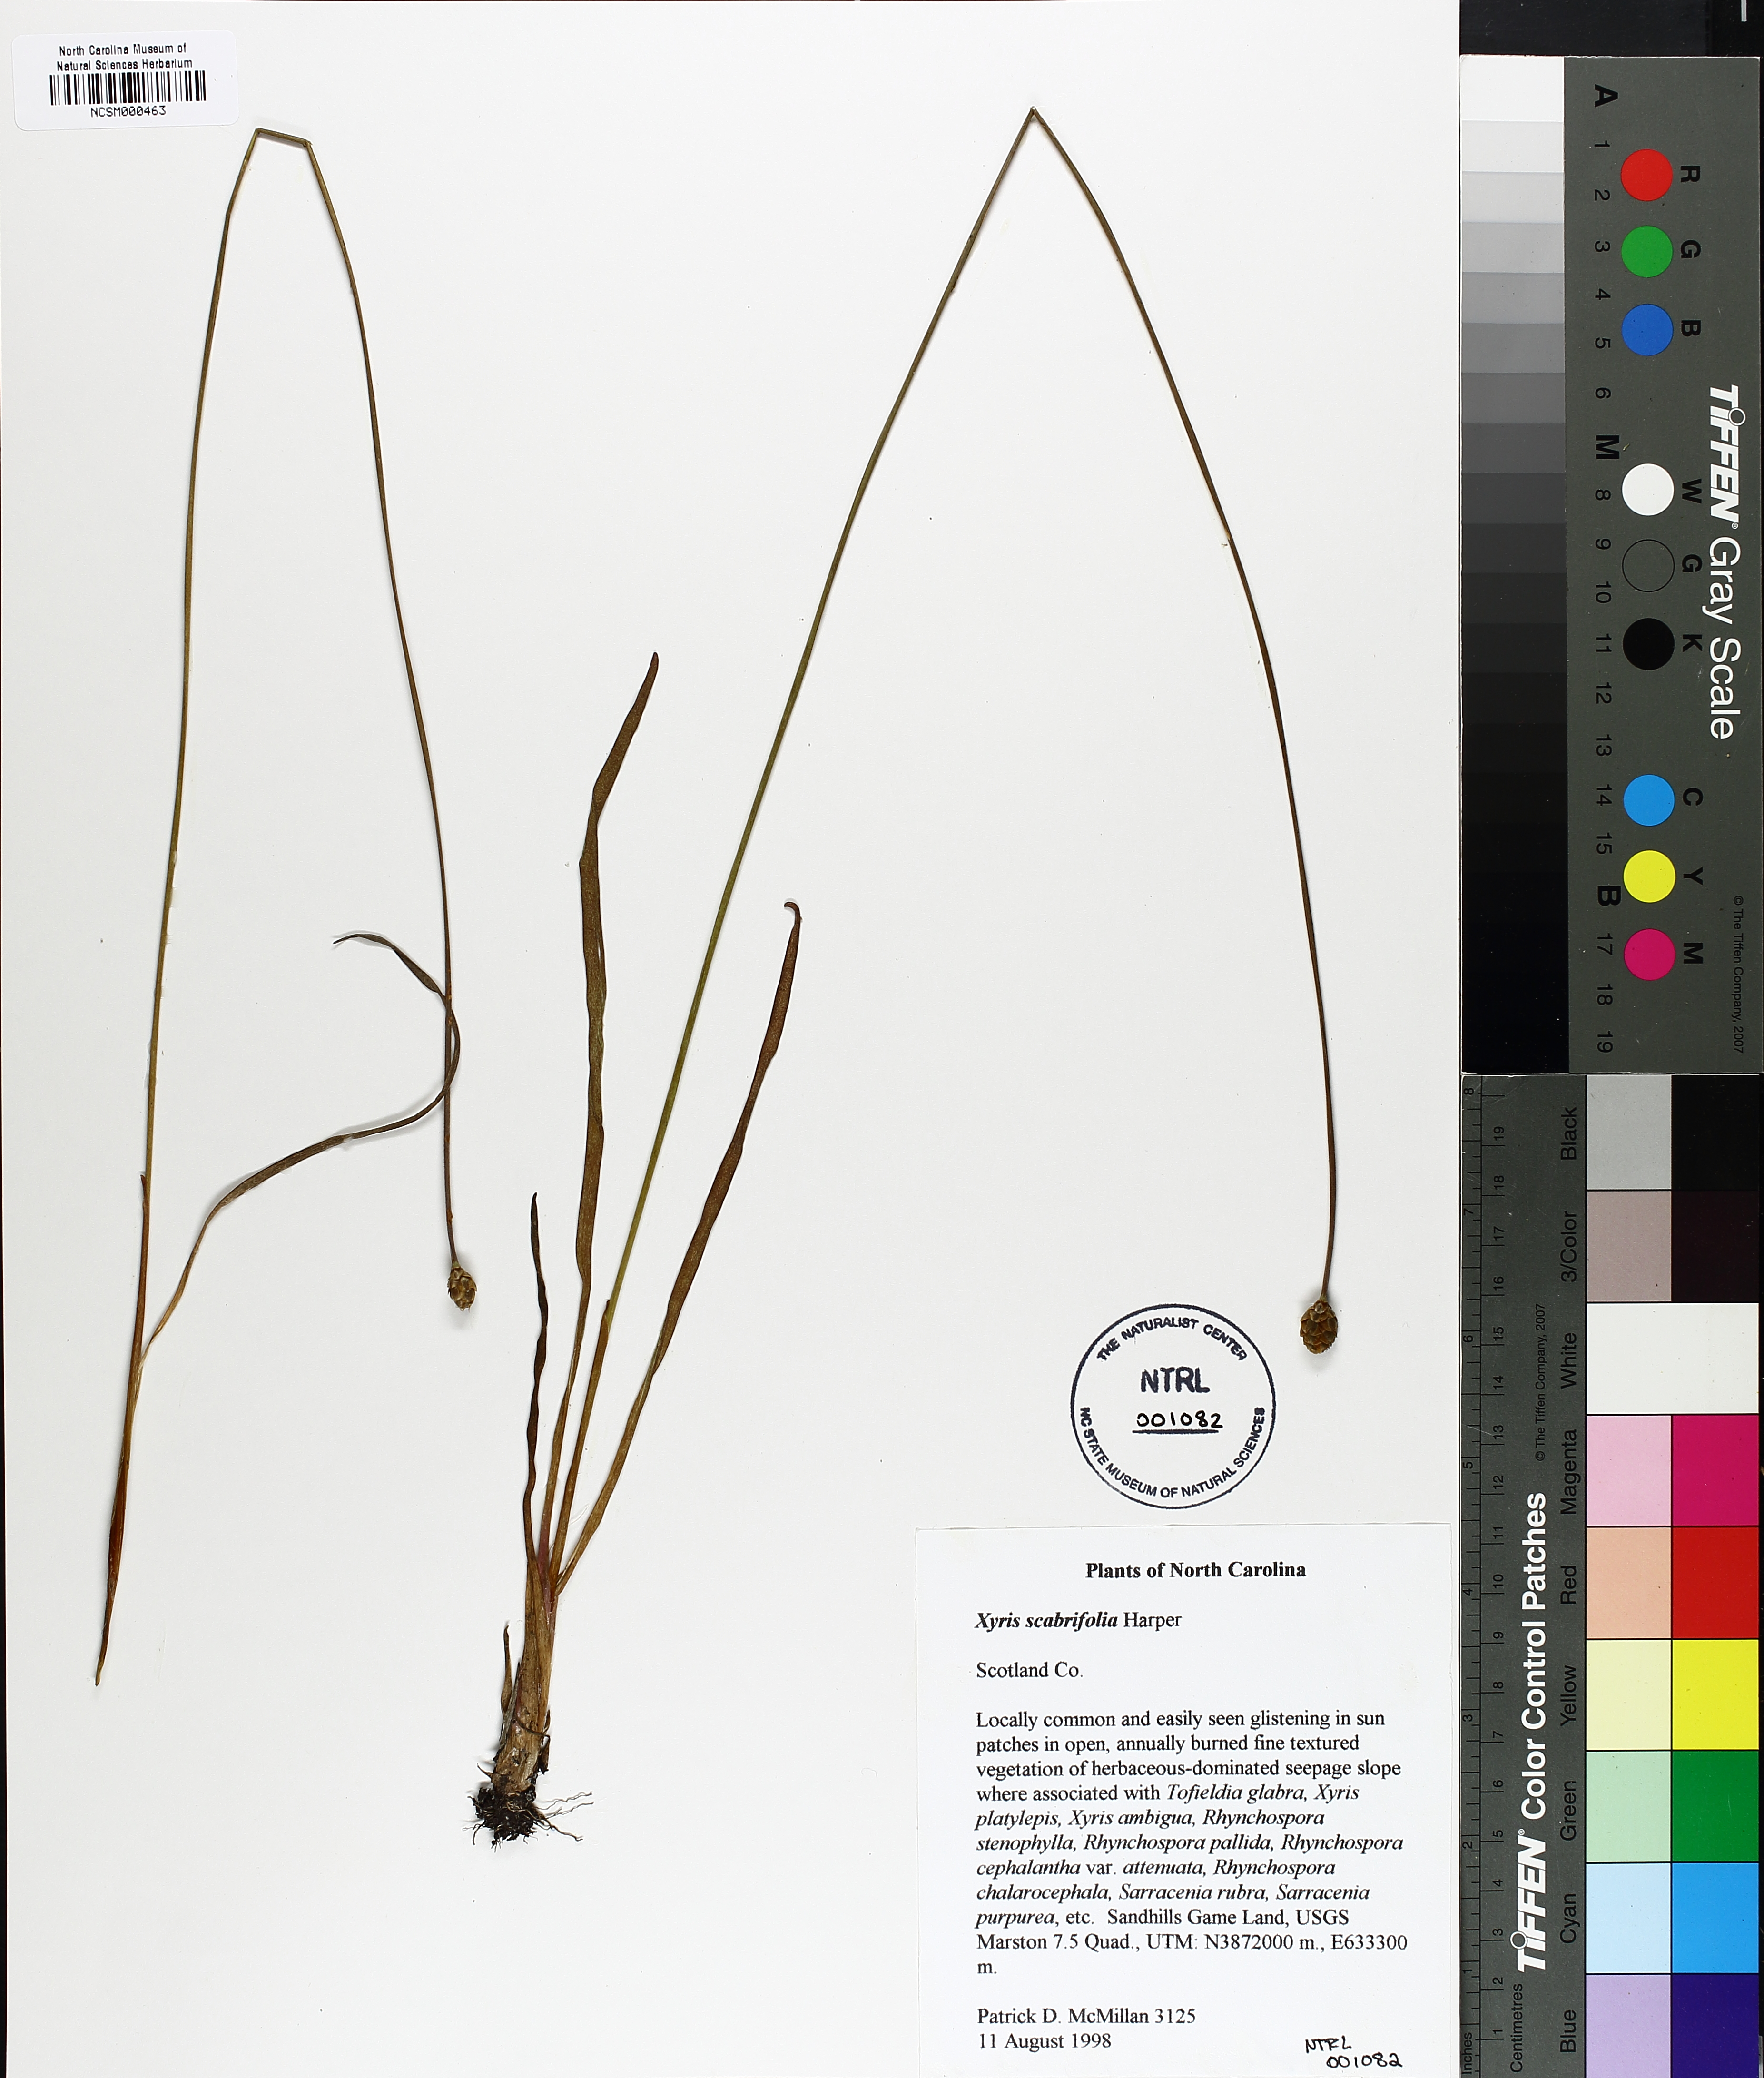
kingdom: Plantae
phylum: Tracheophyta
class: Liliopsida
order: Poales
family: Xyridaceae
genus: Xyris
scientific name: Xyris scabrifolia
